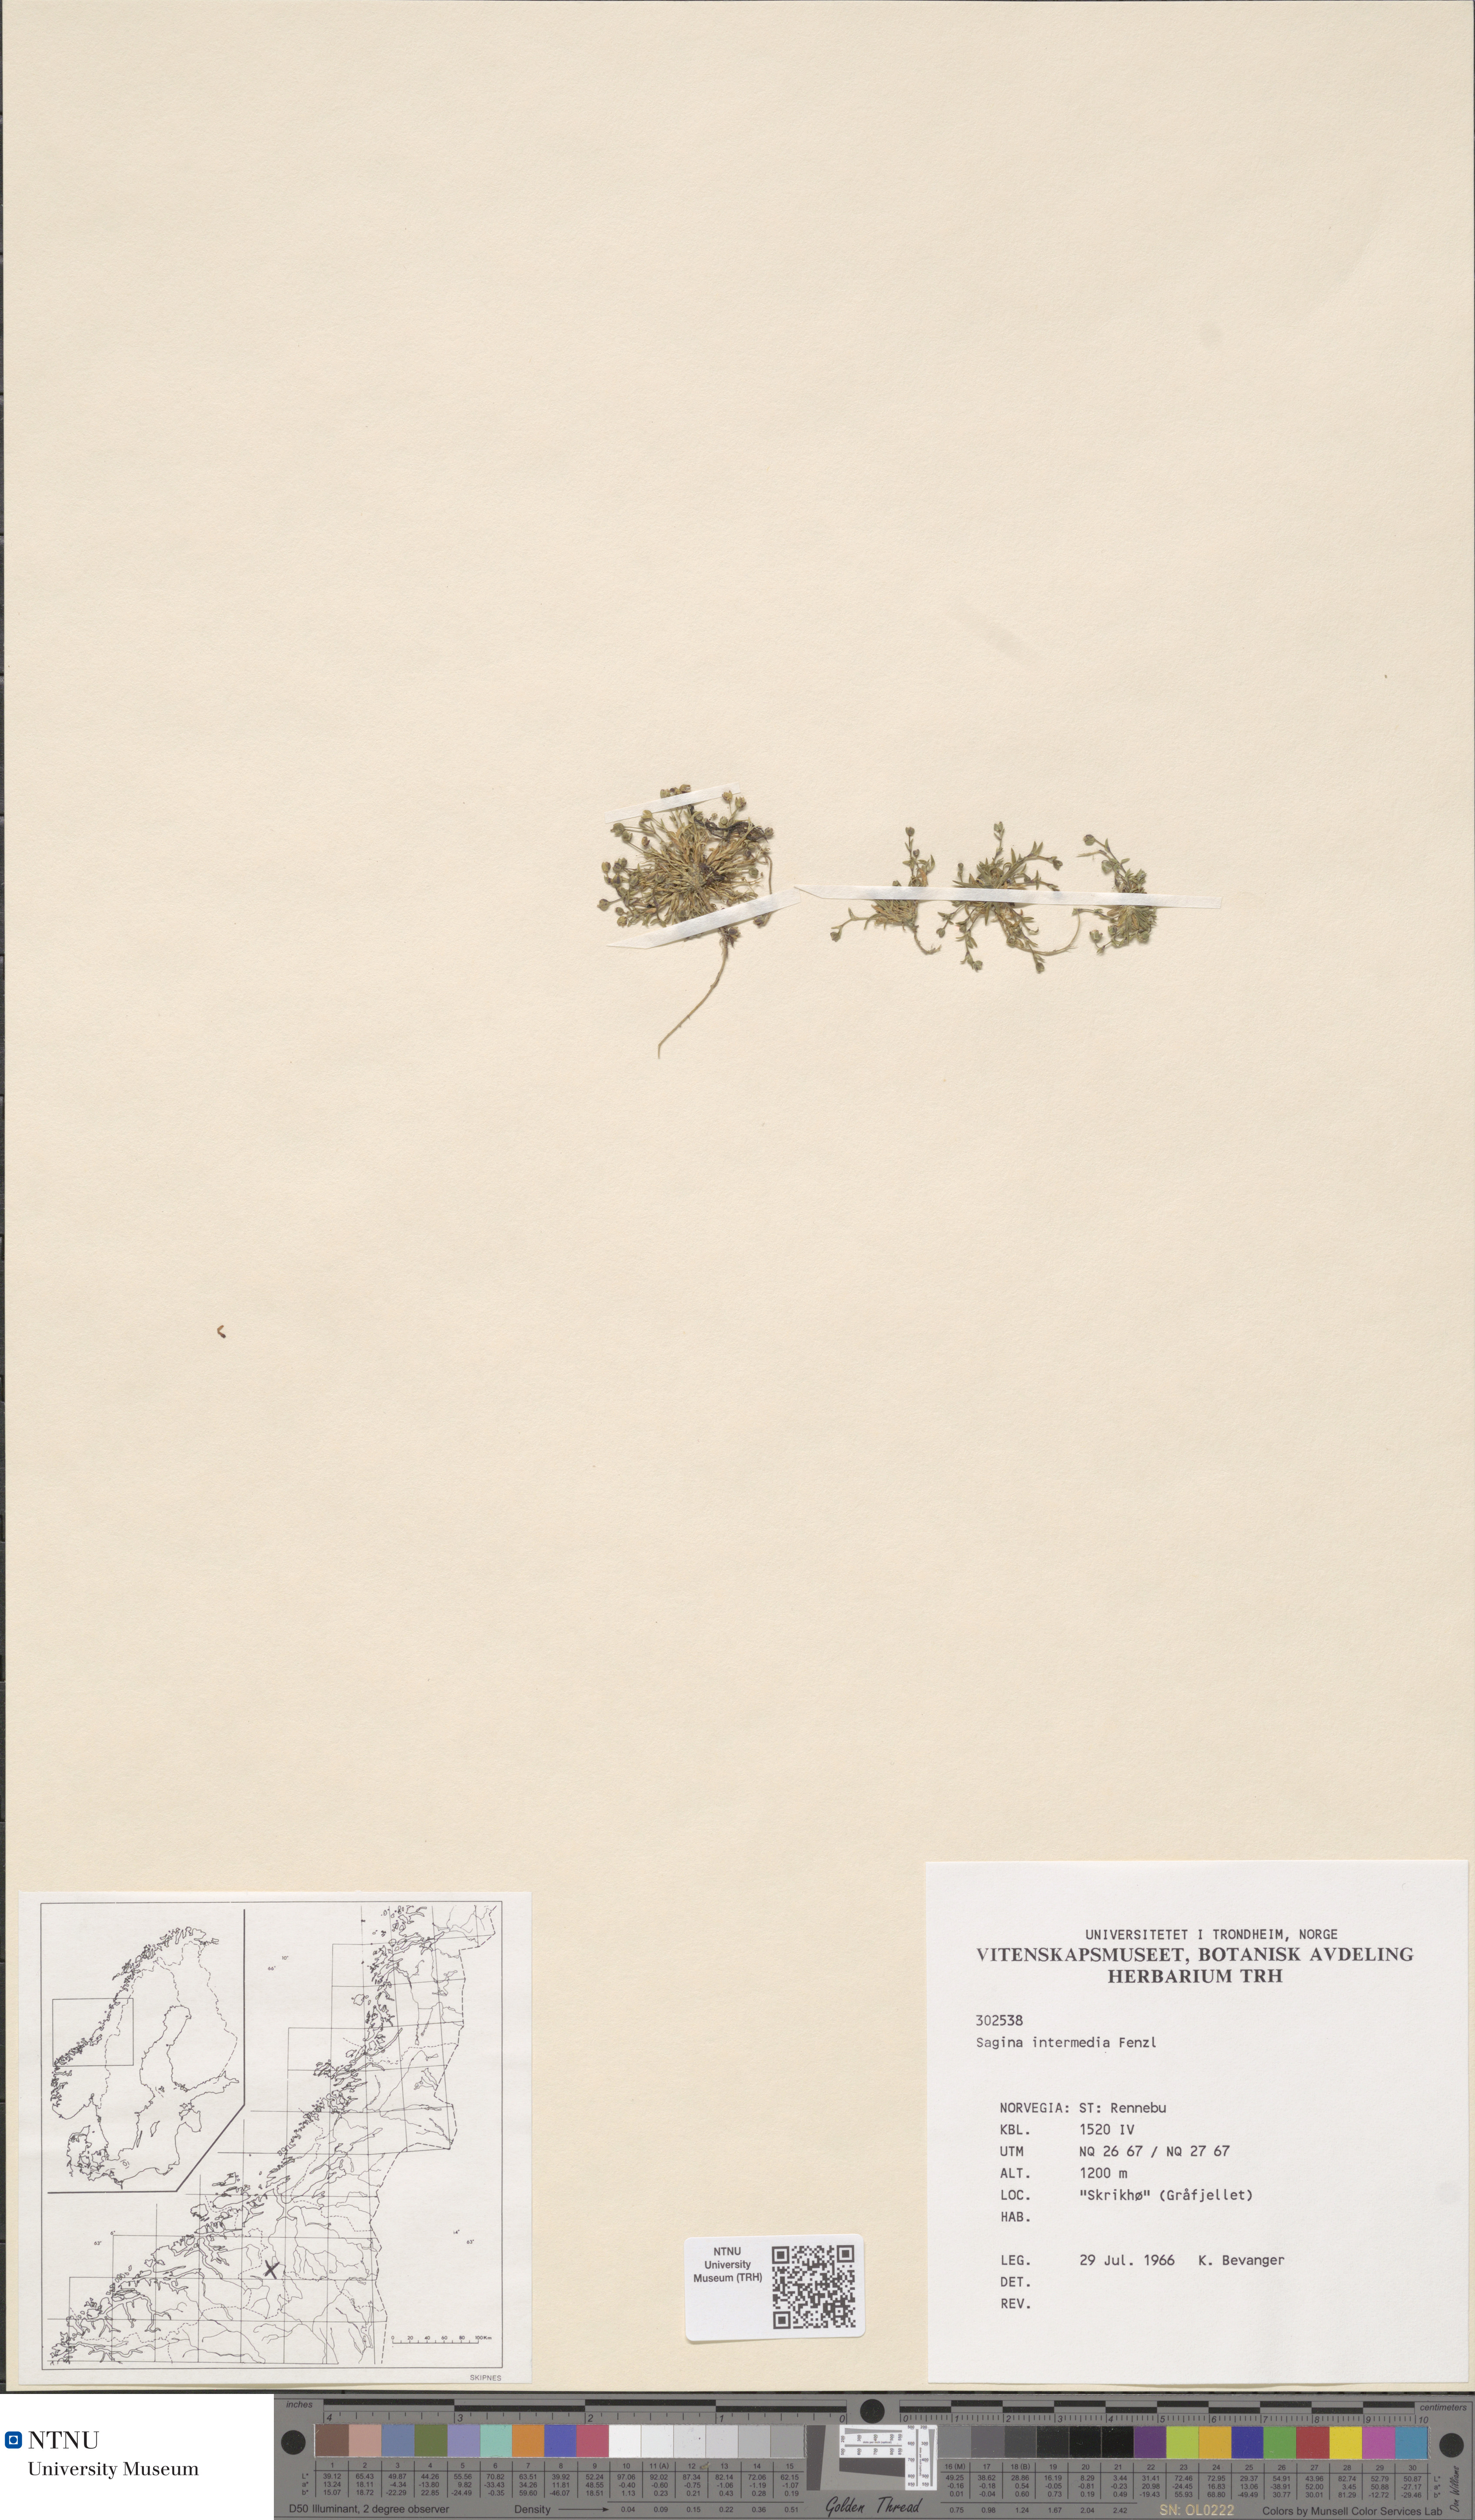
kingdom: Plantae
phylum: Tracheophyta
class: Magnoliopsida
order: Caryophyllales
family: Caryophyllaceae
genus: Sagina
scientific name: Sagina nivalis
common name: Snow pearlwort
